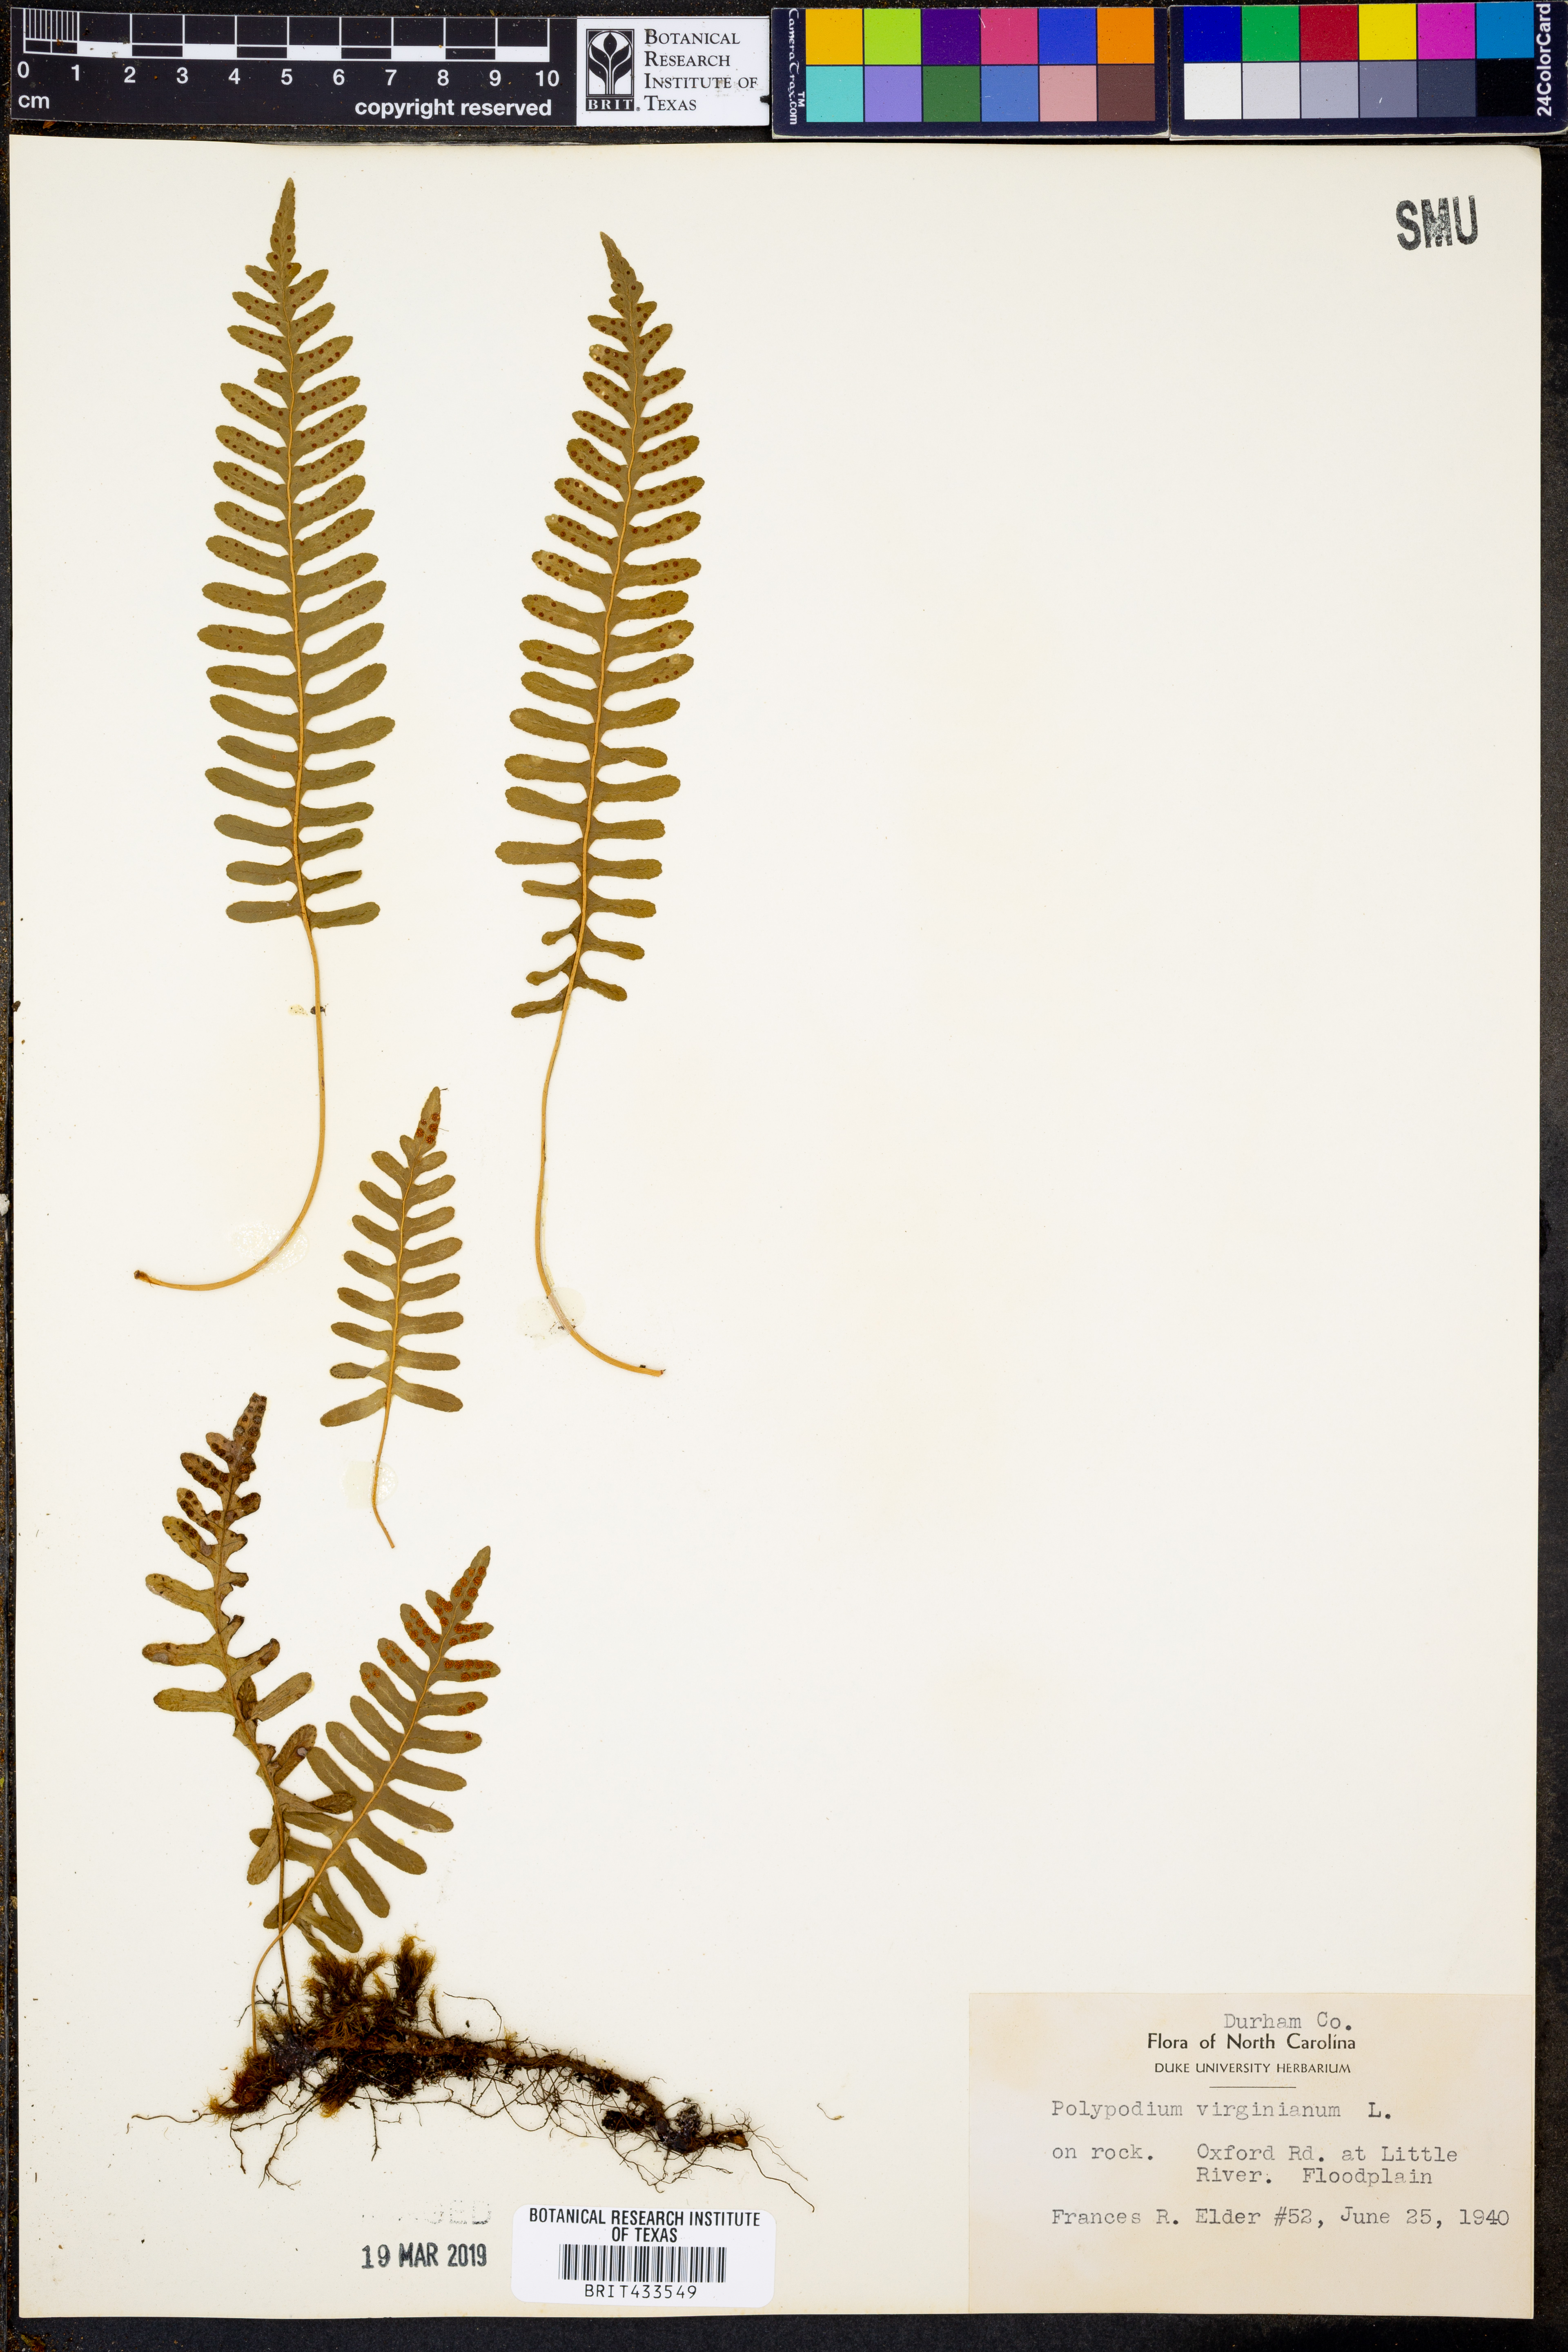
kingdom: Plantae
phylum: Tracheophyta
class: Polypodiopsida
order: Polypodiales
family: Polypodiaceae
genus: Polypodium
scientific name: Polypodium virginianum
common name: American wall fern
